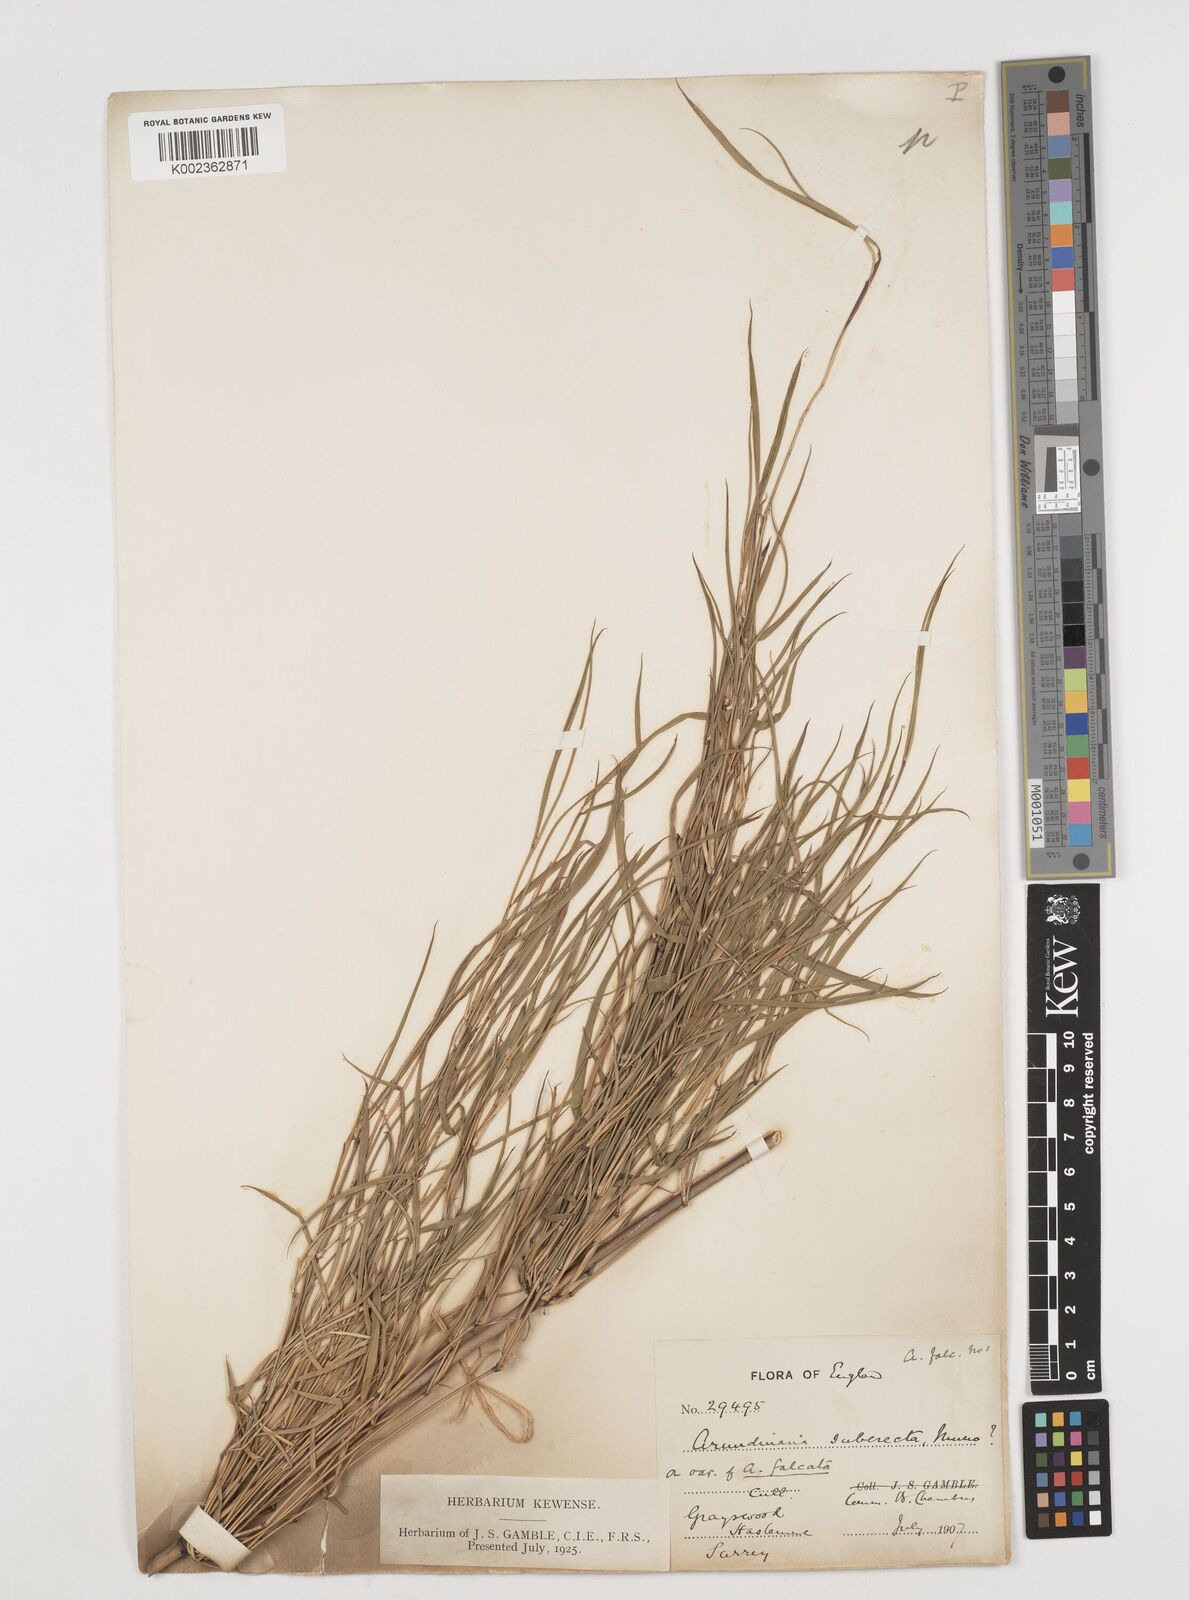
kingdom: Plantae
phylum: Tracheophyta
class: Liliopsida
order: Poales
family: Poaceae
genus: Drepanostachyum
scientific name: Drepanostachyum falcatum
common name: Himalayan bamboo
